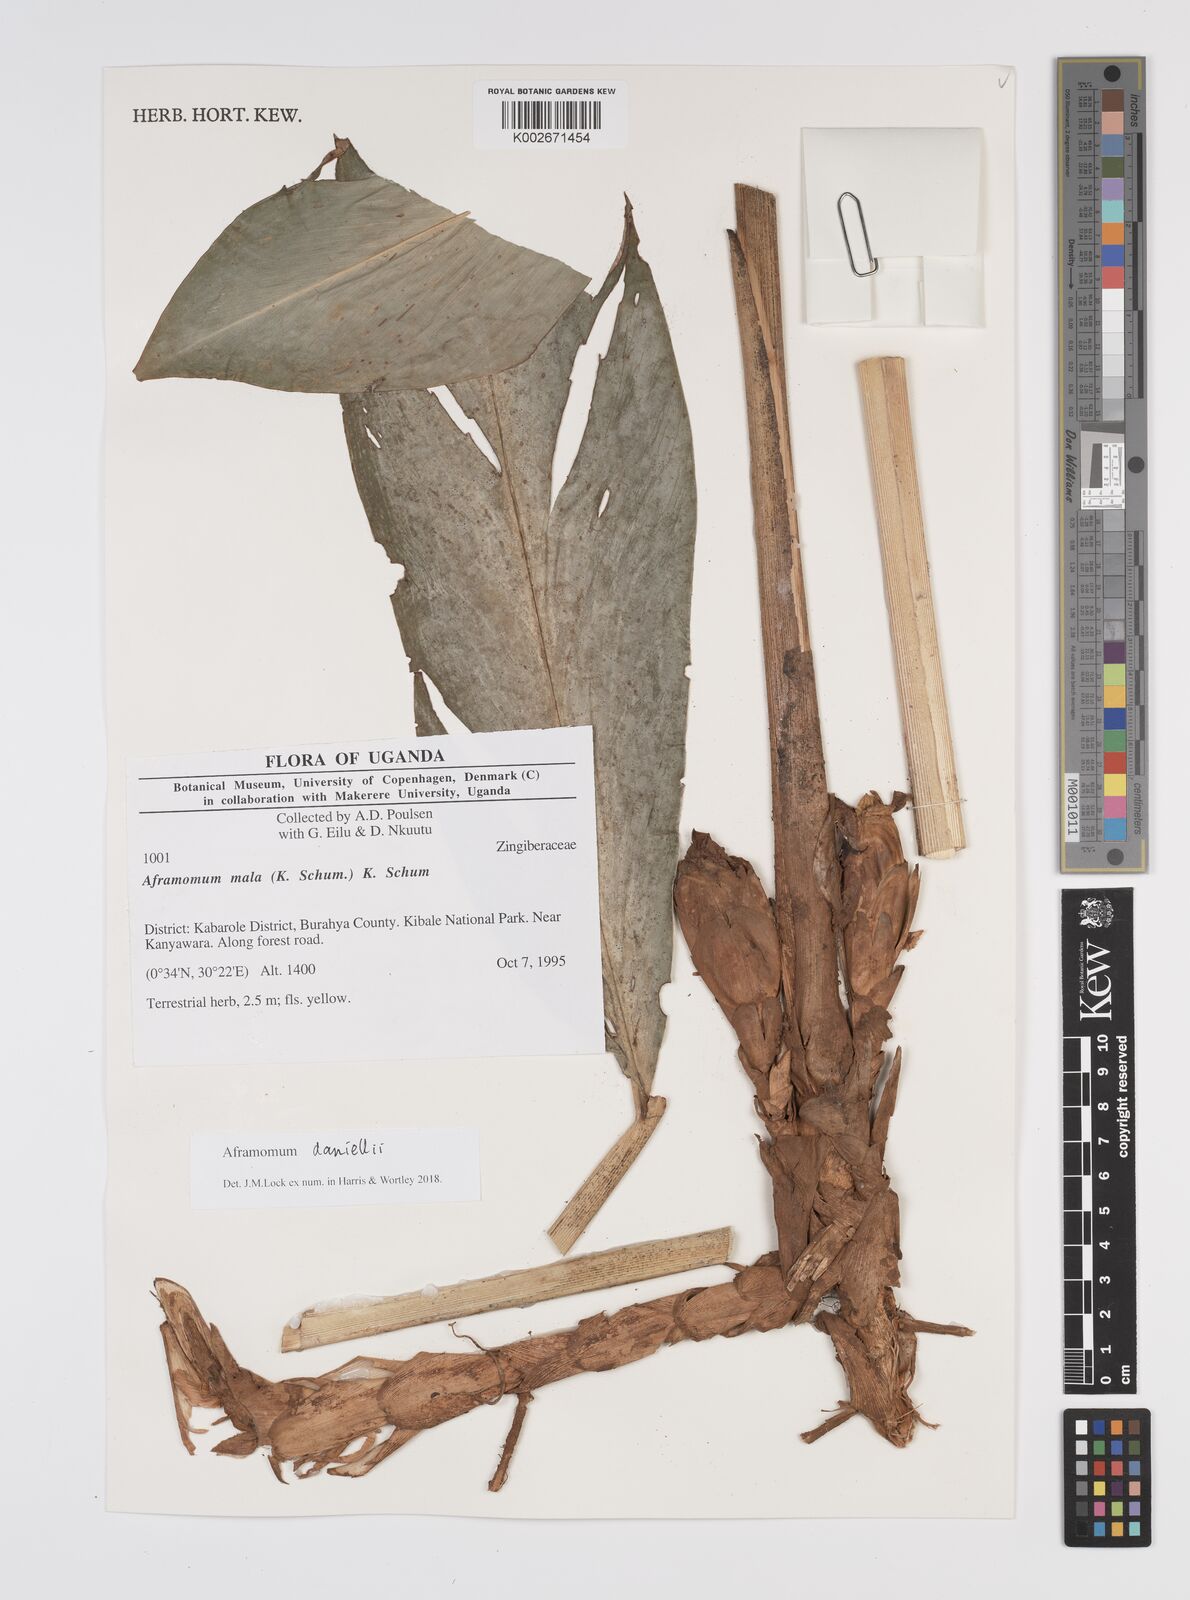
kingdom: Plantae
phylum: Tracheophyta
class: Liliopsida
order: Zingiberales
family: Zingiberaceae
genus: Aframomum
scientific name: Aframomum daniellii
